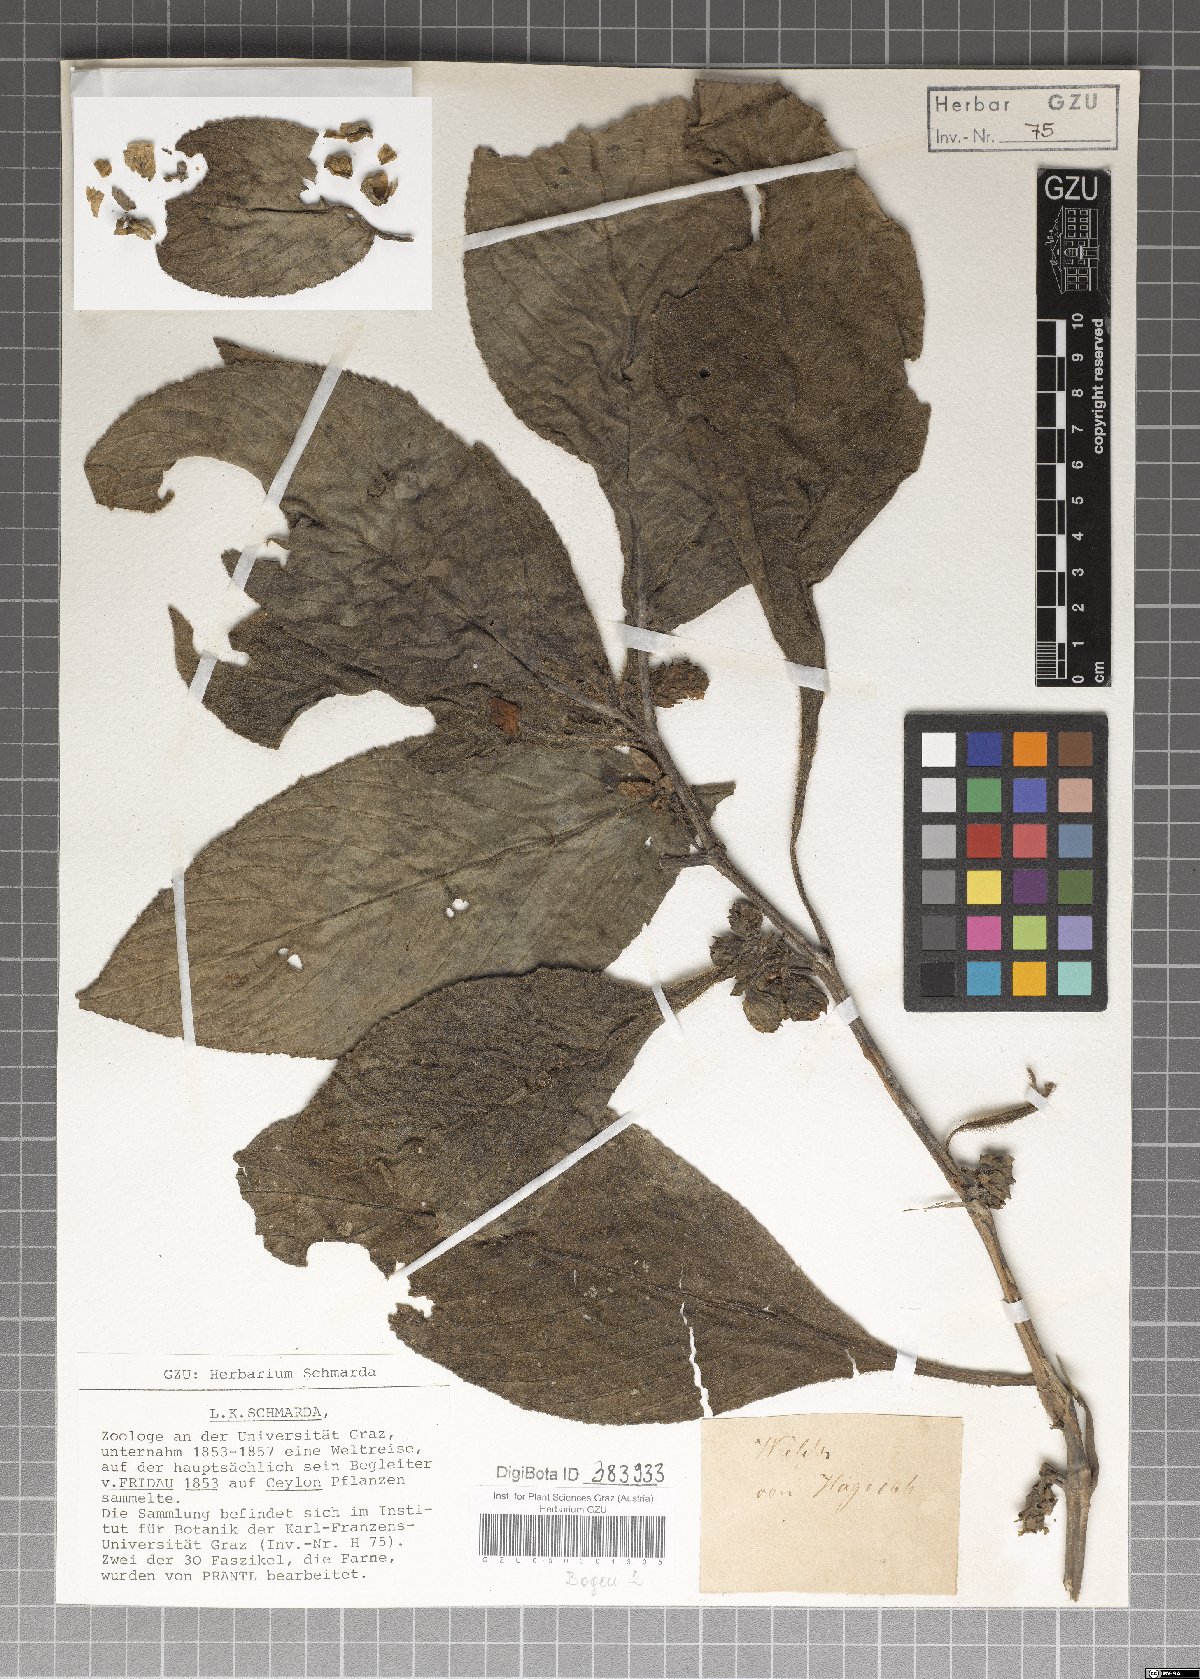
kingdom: Plantae
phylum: Tracheophyta
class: Magnoliopsida
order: Lamiales
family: Acanthaceae
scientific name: Acanthaceae
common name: Acanthaceae
